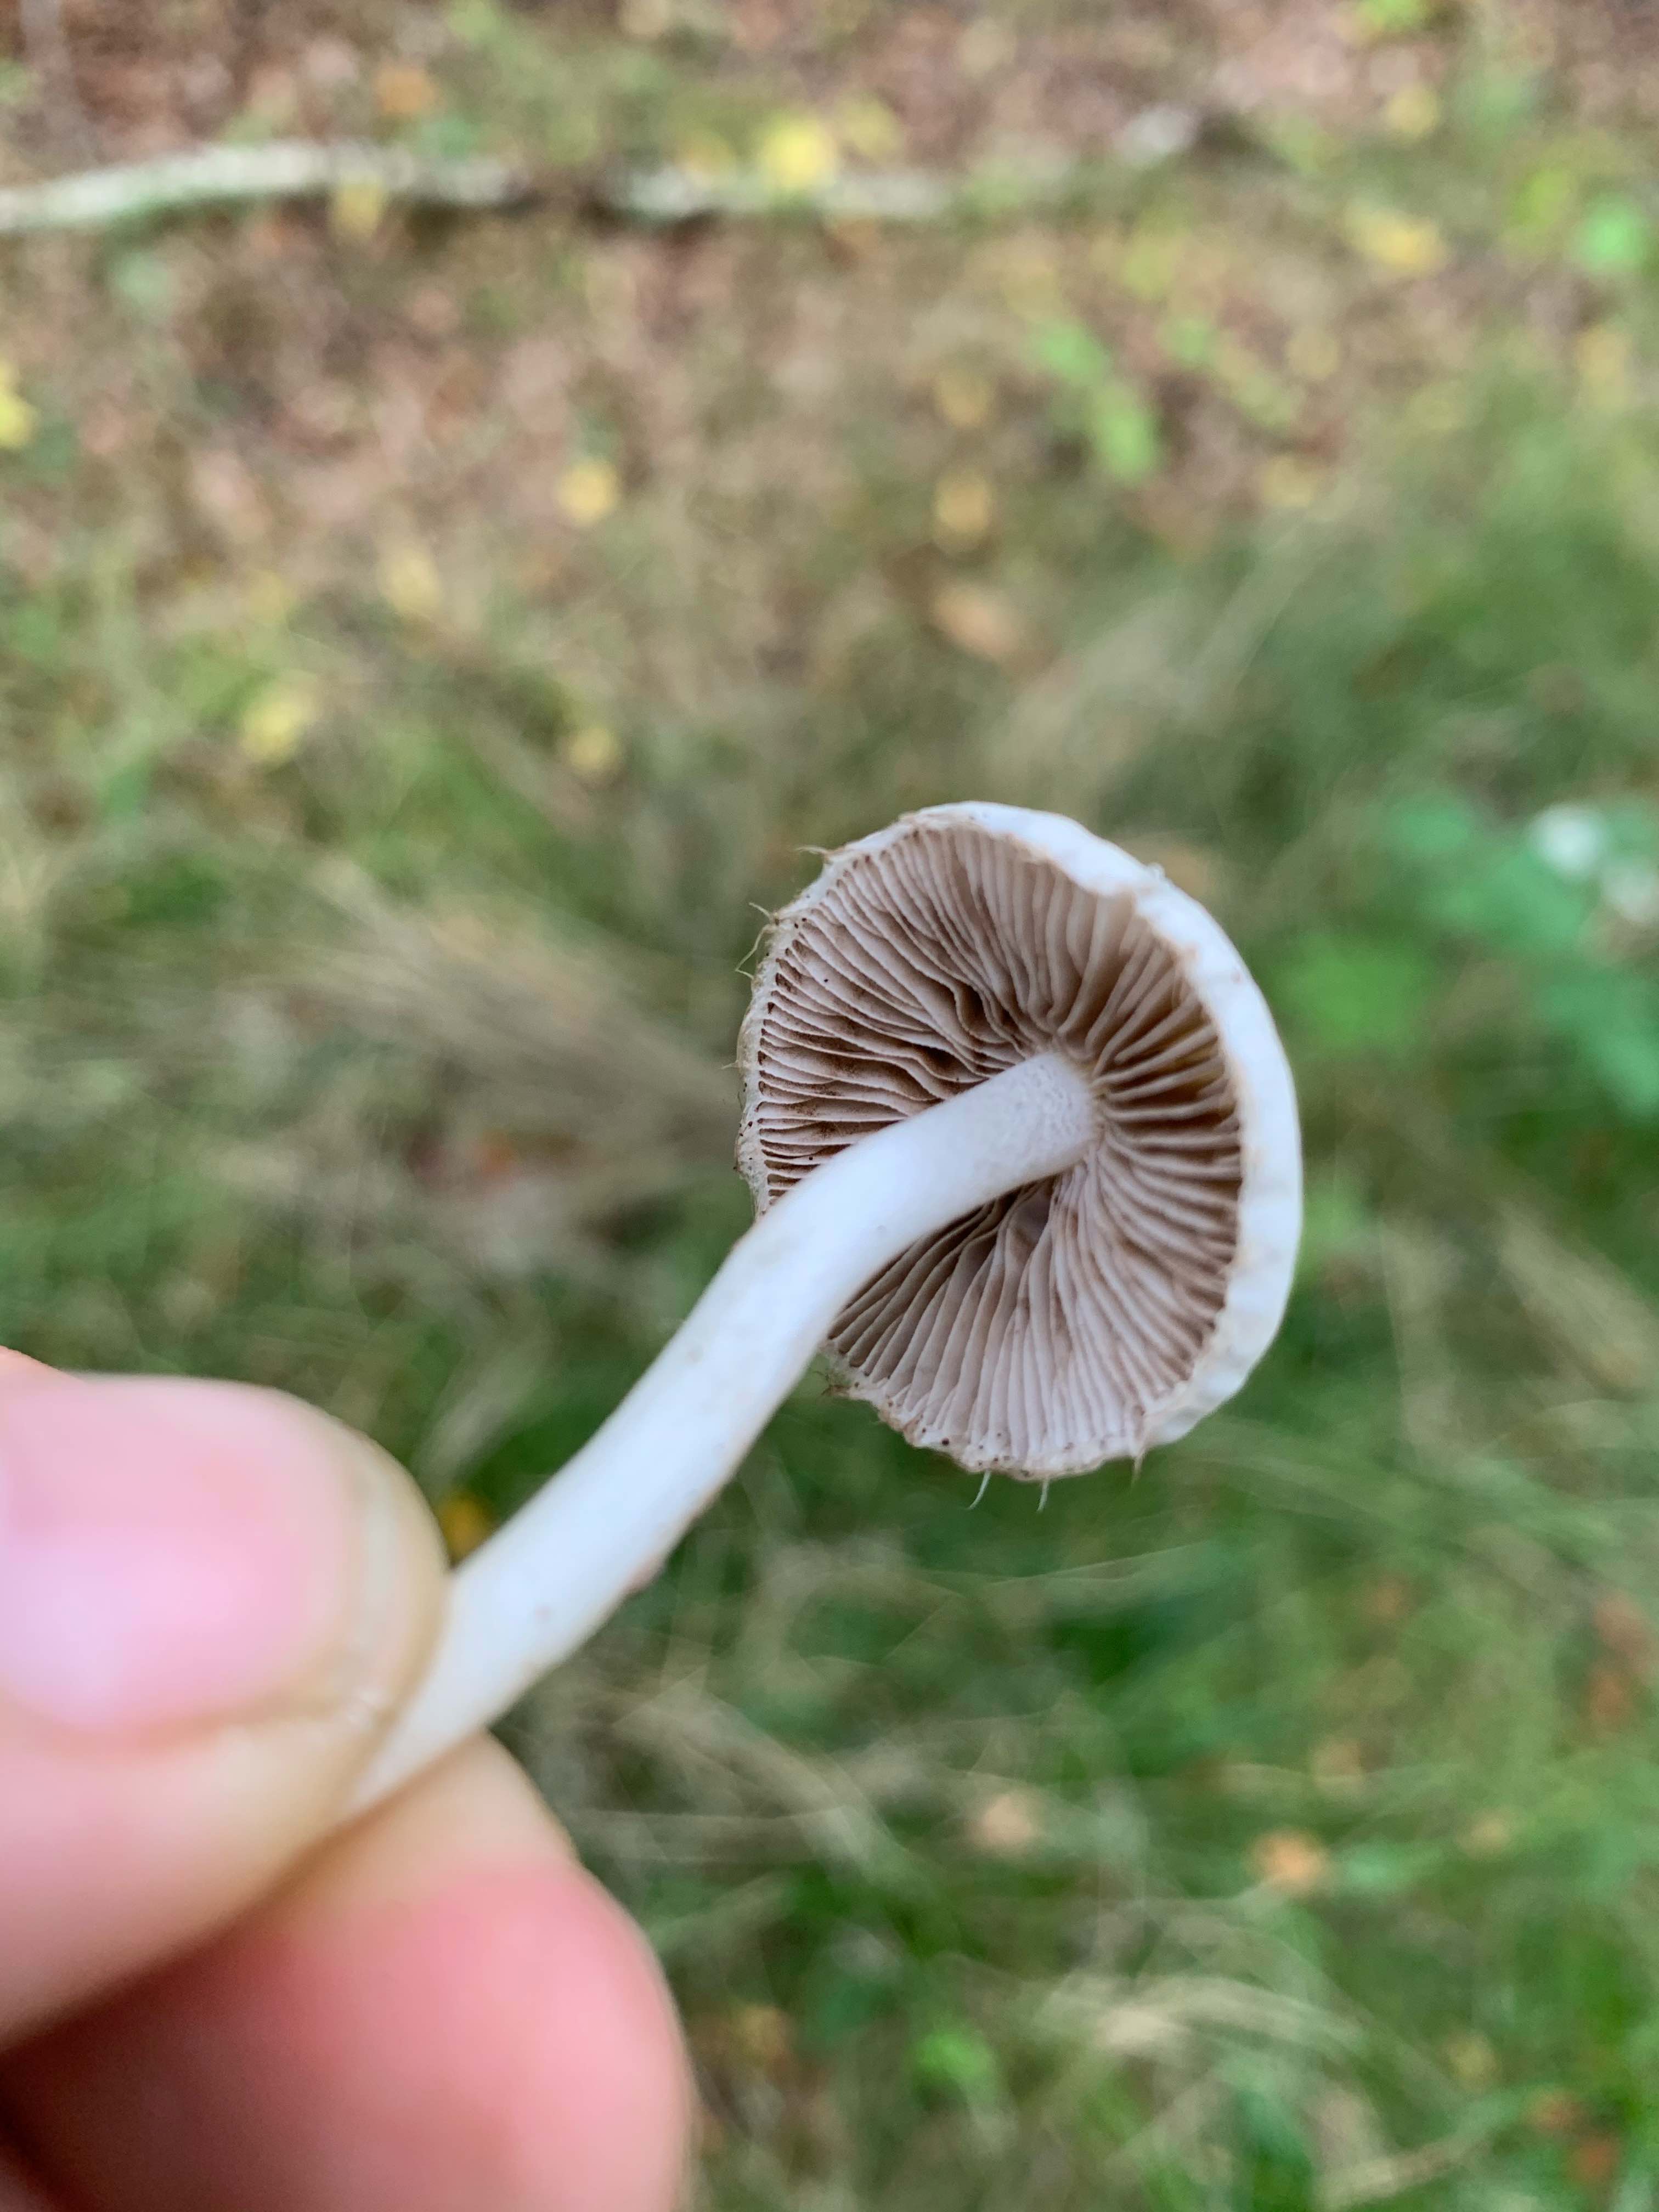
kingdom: Fungi
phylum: Basidiomycota
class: Agaricomycetes
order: Agaricales
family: Inocybaceae
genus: Inocybe
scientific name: Inocybe
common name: almindelig trævlhat
